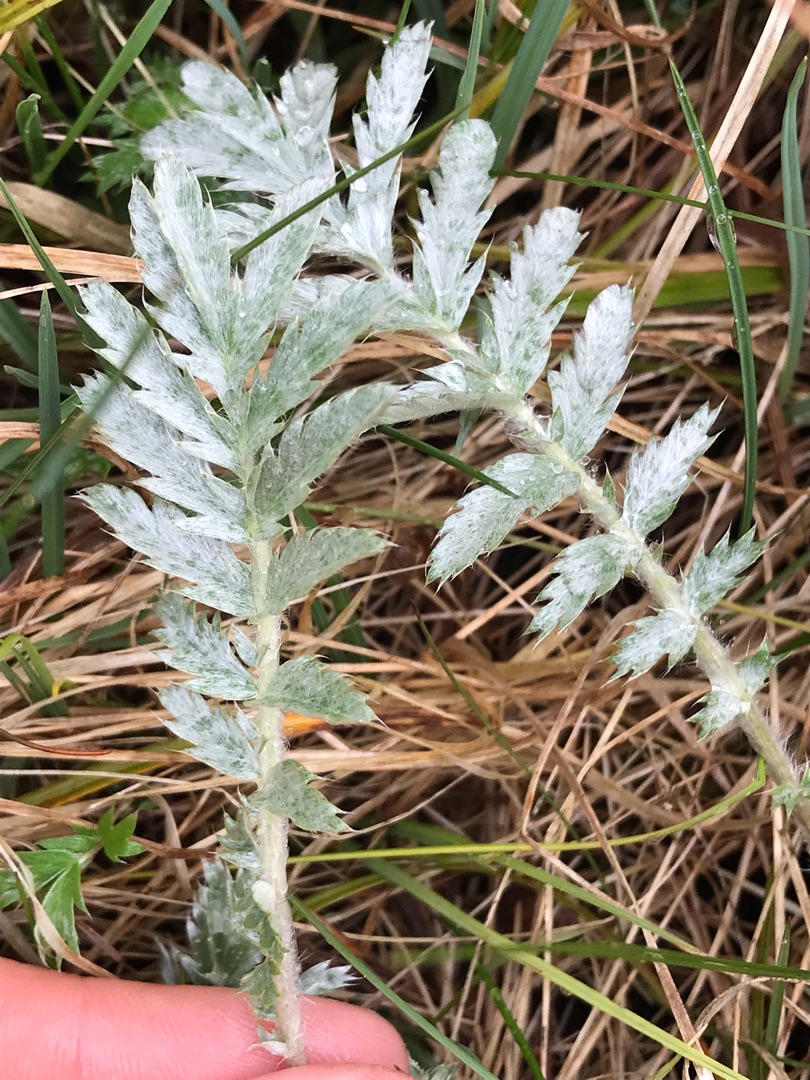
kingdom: Plantae
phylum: Tracheophyta
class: Magnoliopsida
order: Rosales
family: Rosaceae
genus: Argentina
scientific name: Argentina anserina
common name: Gåsepotentil
